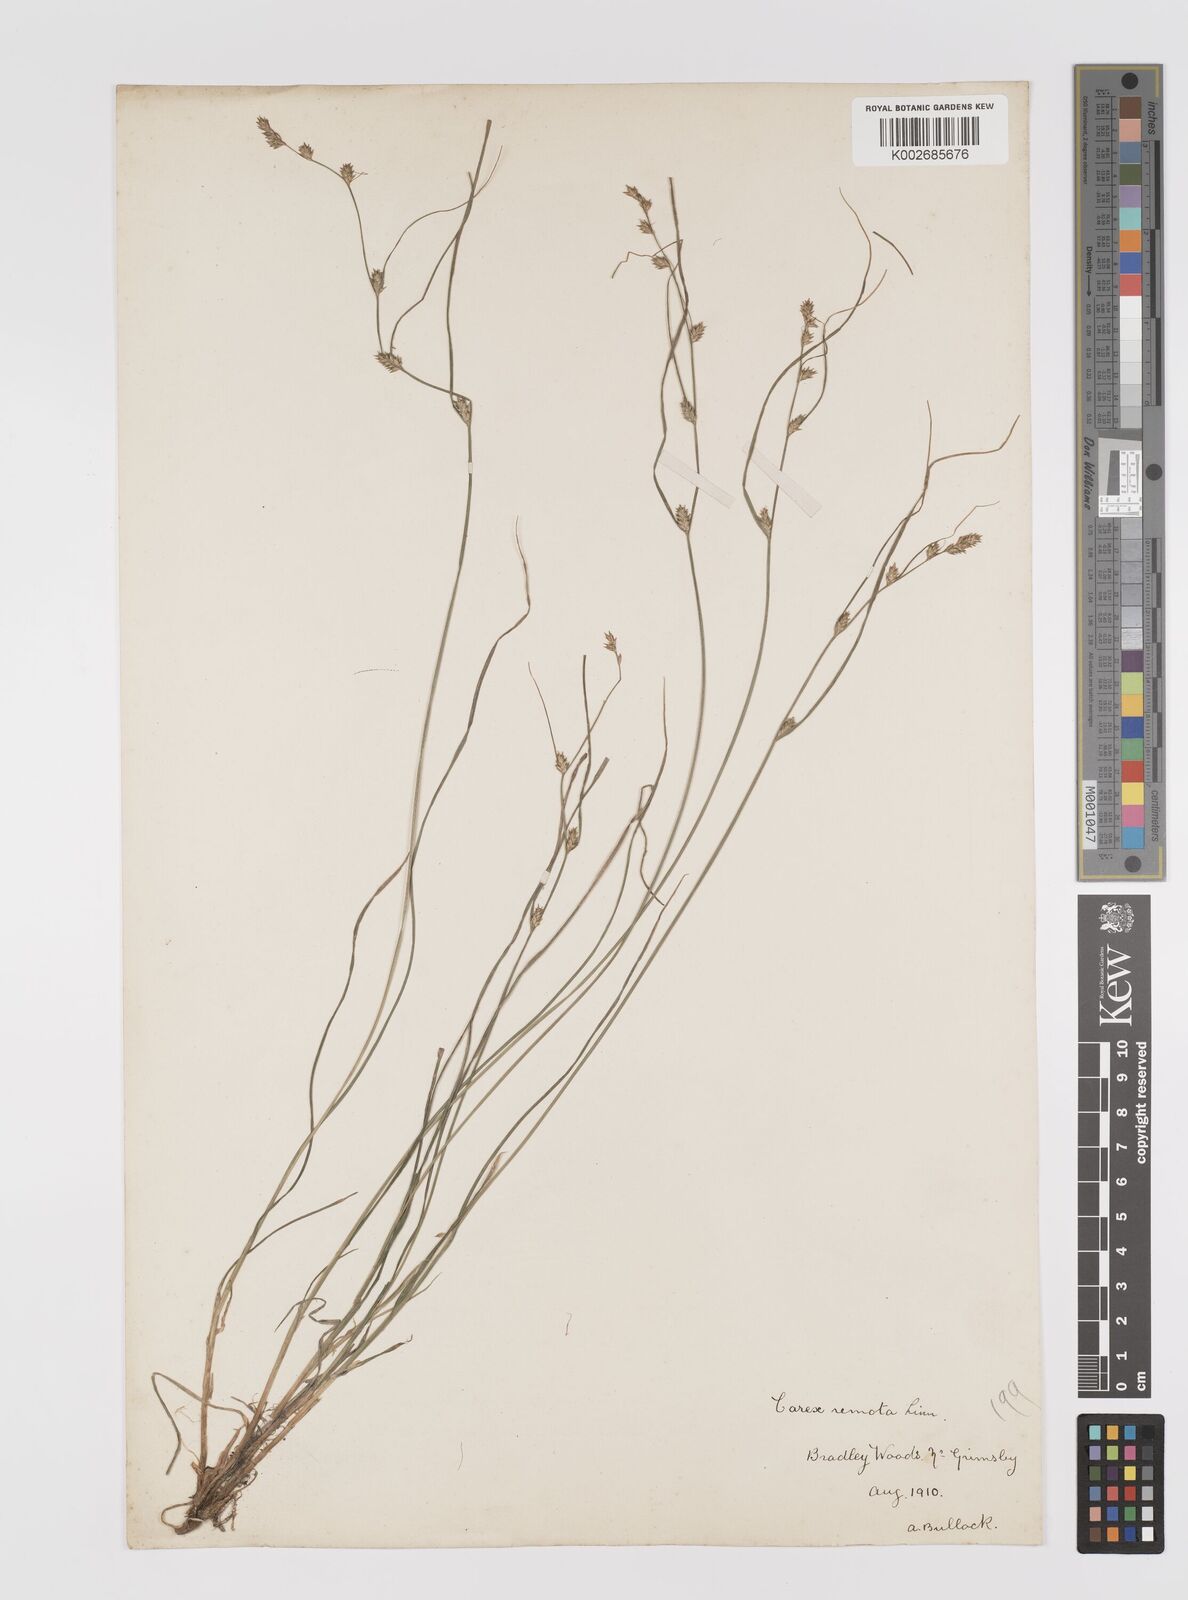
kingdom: Plantae
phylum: Tracheophyta
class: Liliopsida
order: Poales
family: Cyperaceae
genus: Carex
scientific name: Carex remota
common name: Remote sedge
